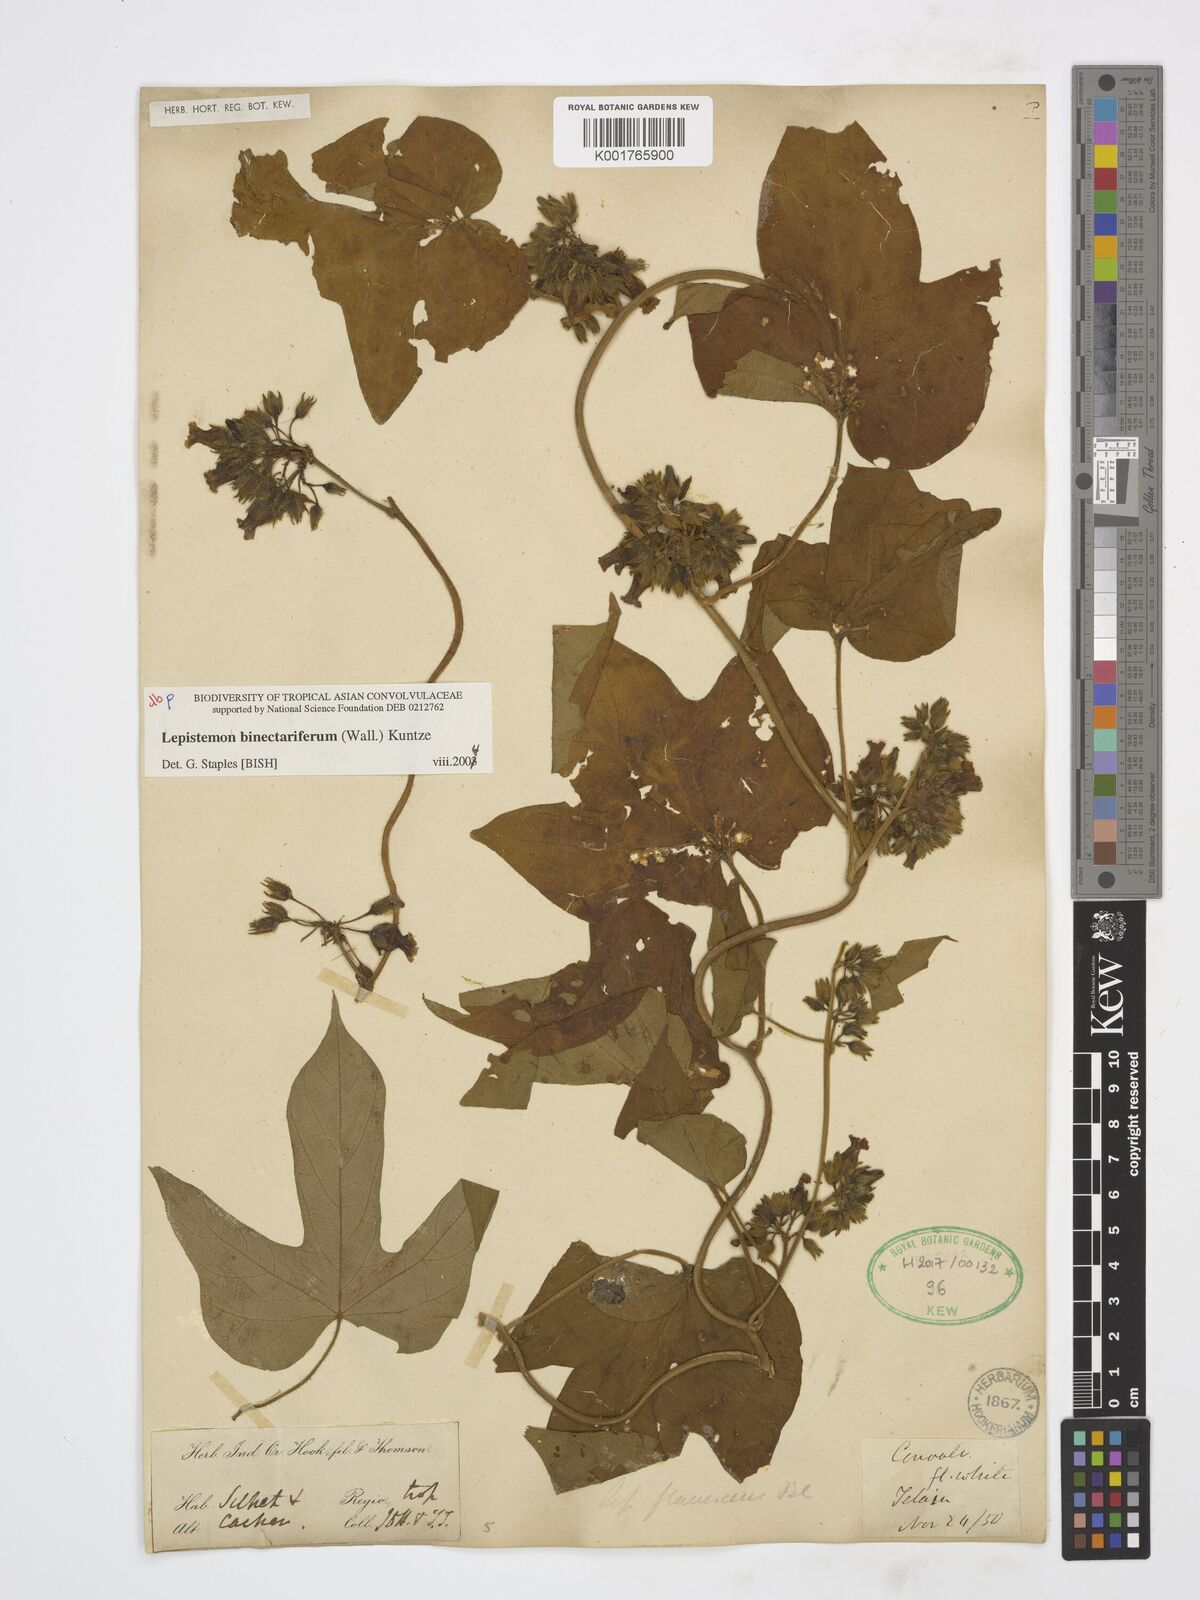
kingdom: Plantae
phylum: Tracheophyta
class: Magnoliopsida
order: Solanales
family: Convolvulaceae
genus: Lepistemon
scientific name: Lepistemon
